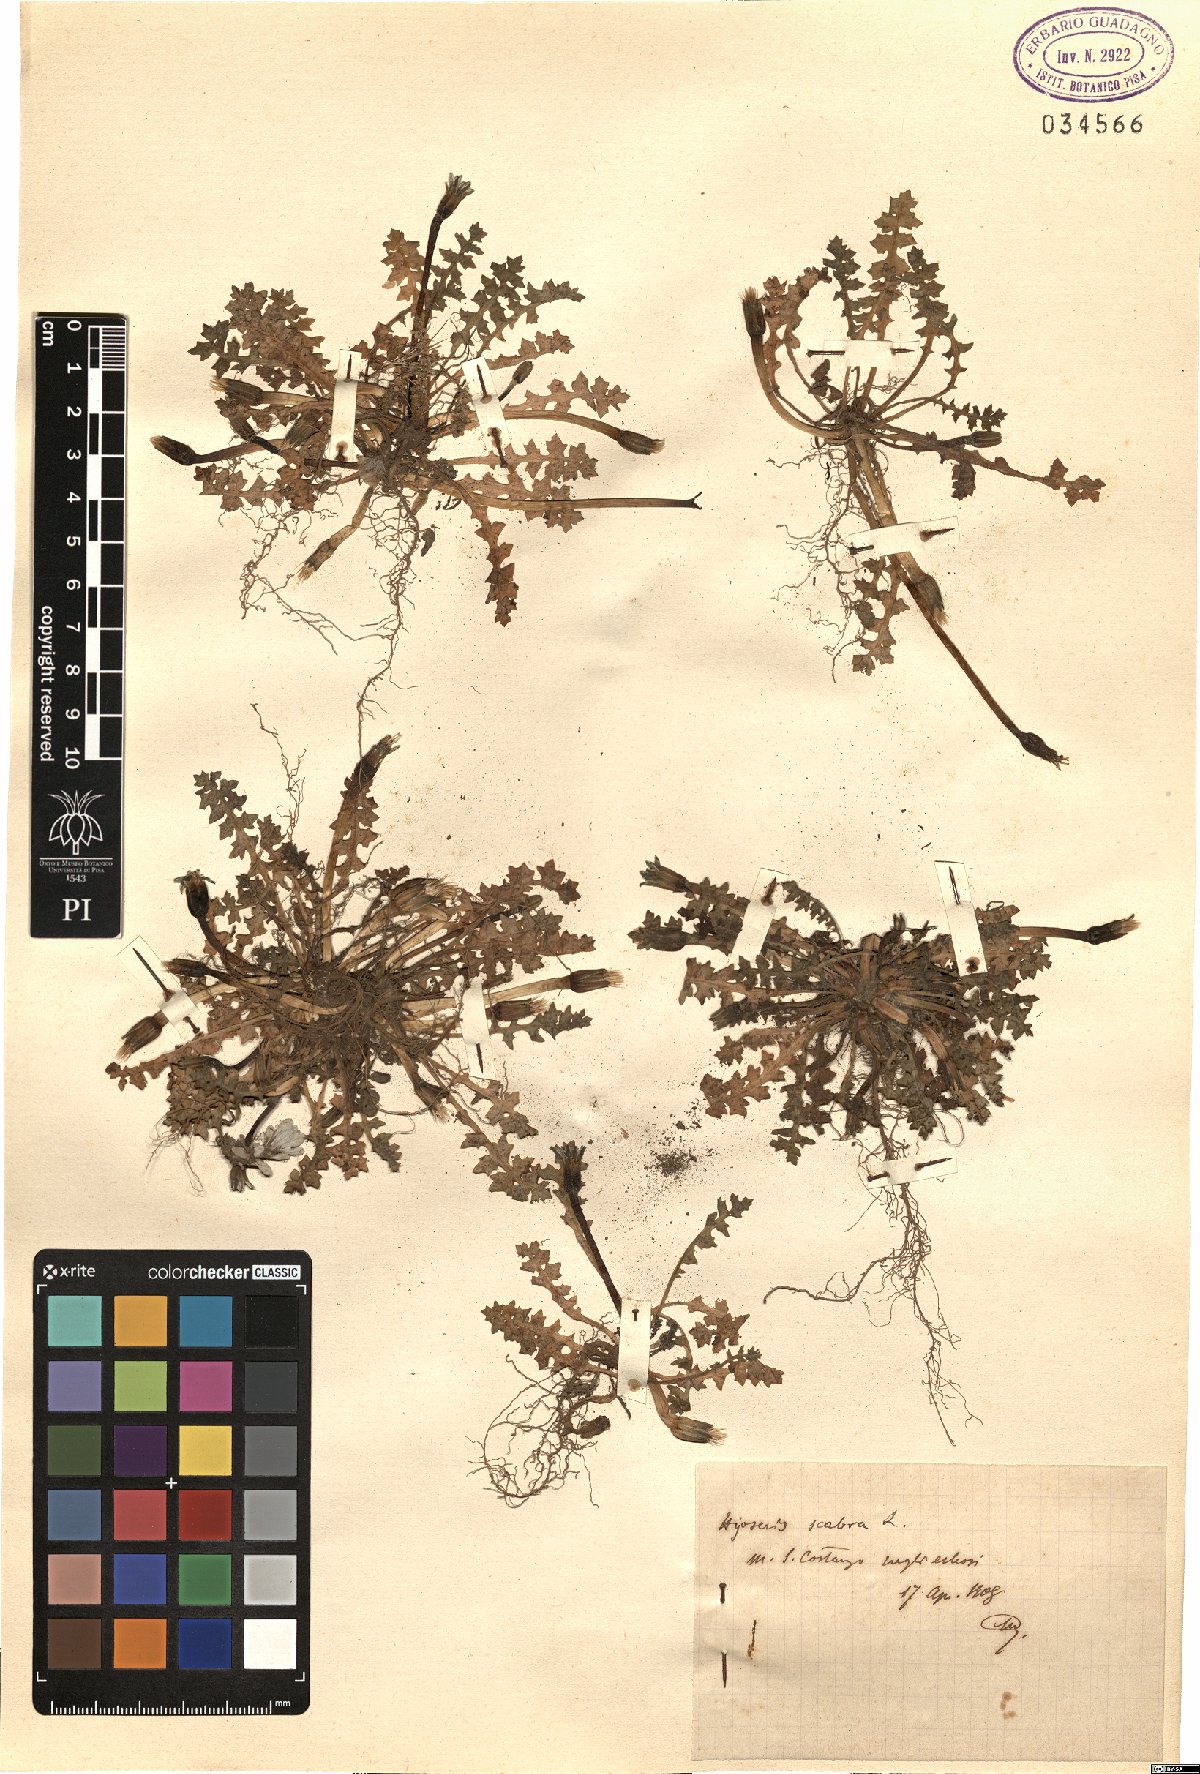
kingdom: Plantae
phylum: Tracheophyta
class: Magnoliopsida
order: Asterales
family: Asteraceae
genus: Hyoseris
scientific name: Hyoseris scabra
